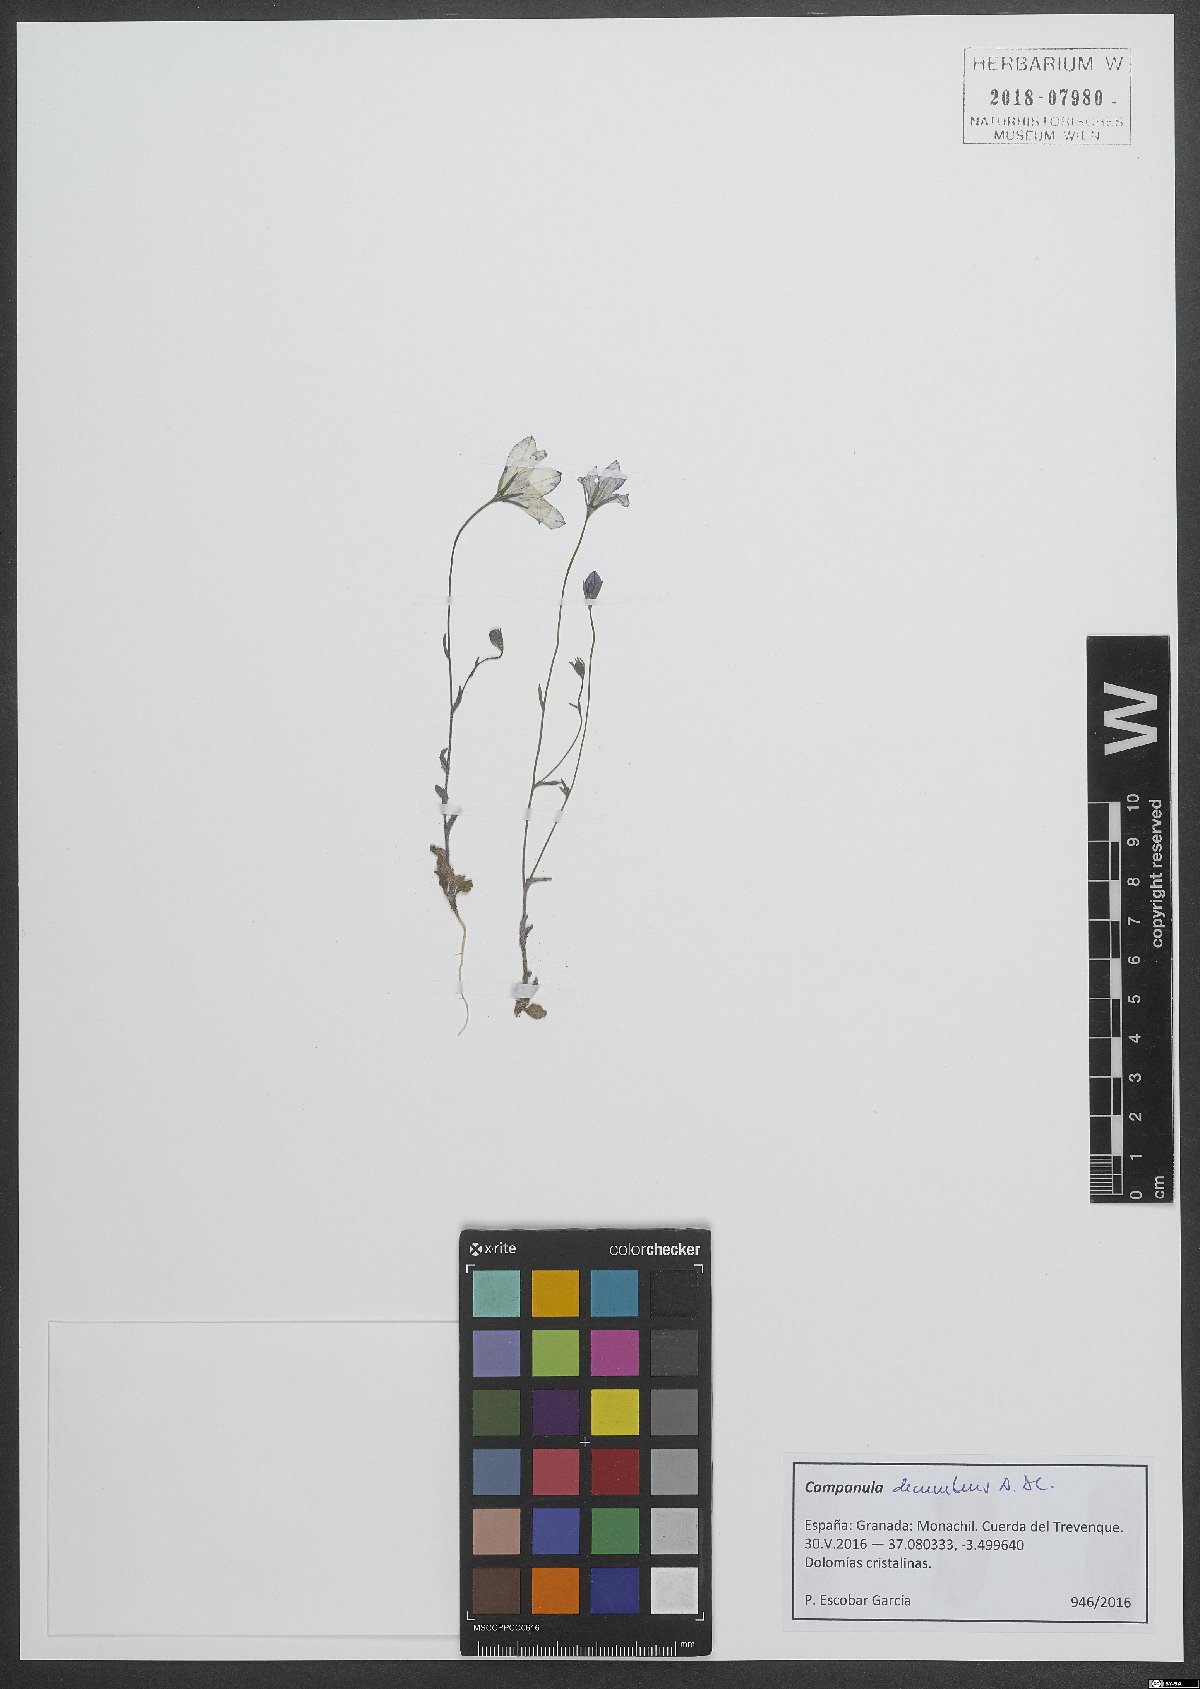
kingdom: Plantae
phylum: Tracheophyta
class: Magnoliopsida
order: Asterales
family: Campanulaceae
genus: Campanula
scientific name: Campanula decumbens
